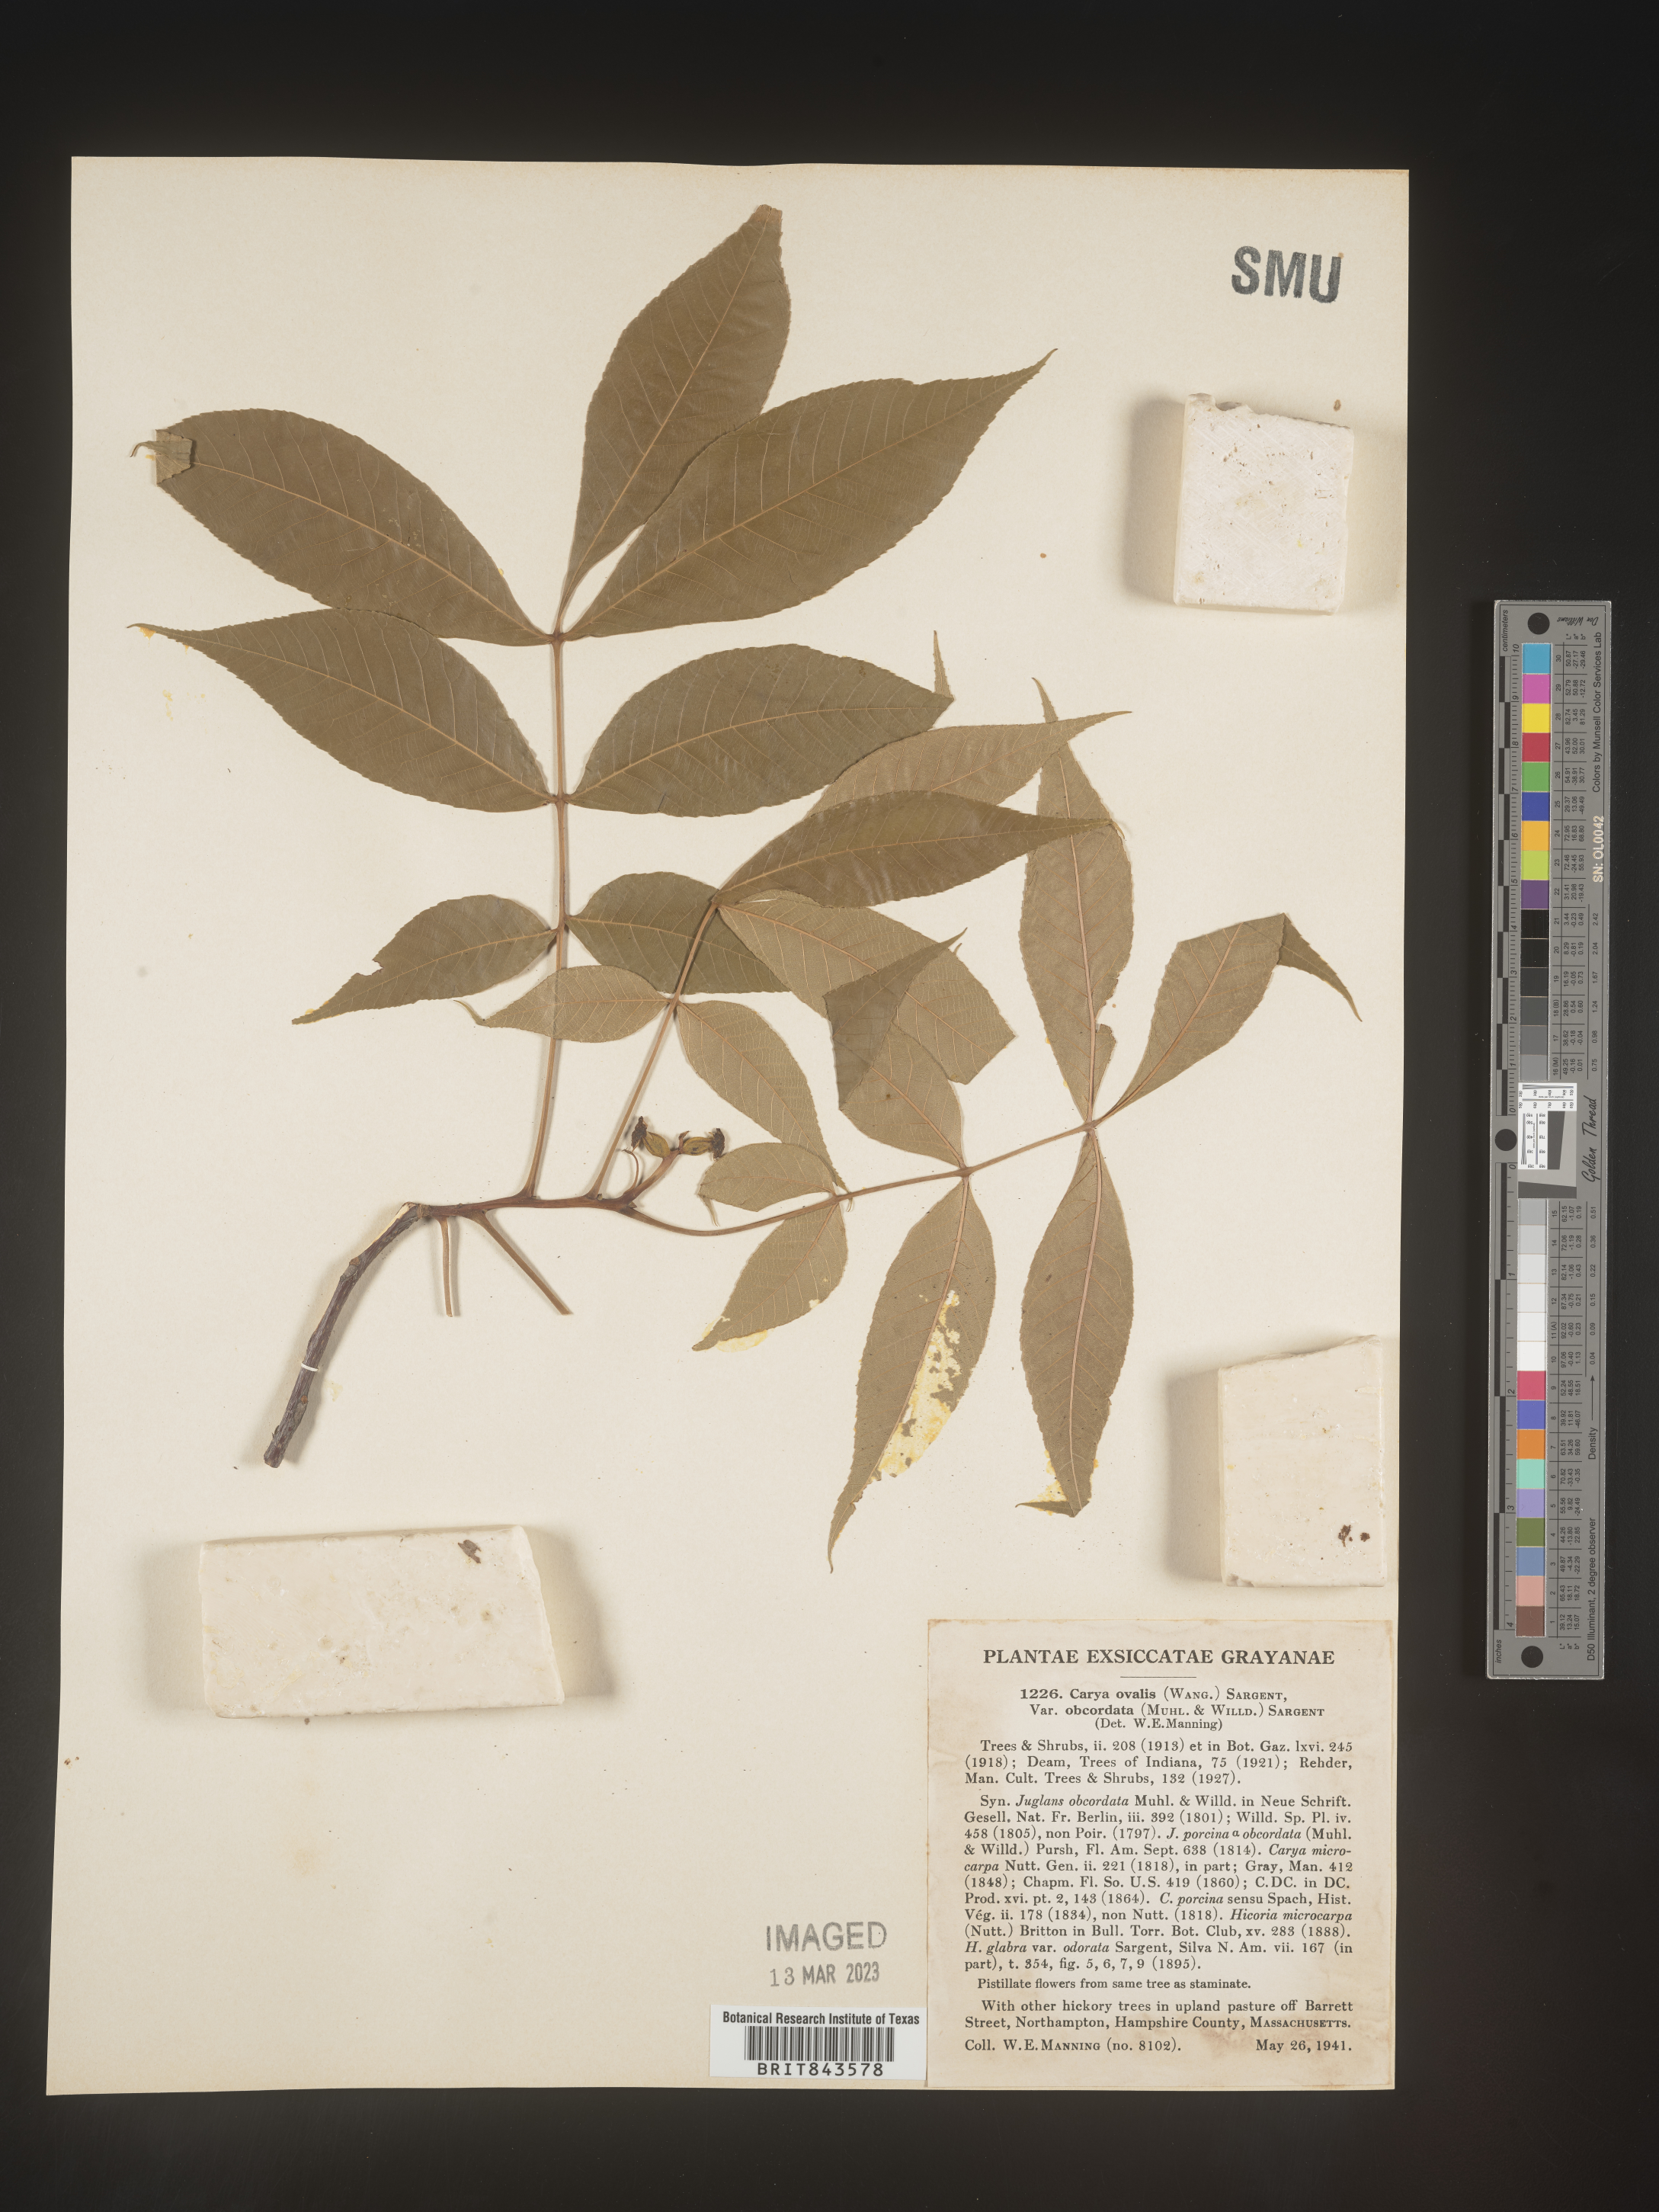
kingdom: Plantae
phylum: Tracheophyta
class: Magnoliopsida
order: Fagales
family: Juglandaceae
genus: Carya
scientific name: Carya ovalis
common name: False shagbark
